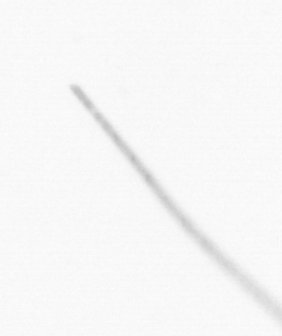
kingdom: Chromista
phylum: Ochrophyta
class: Bacillariophyceae
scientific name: Bacillariophyceae
